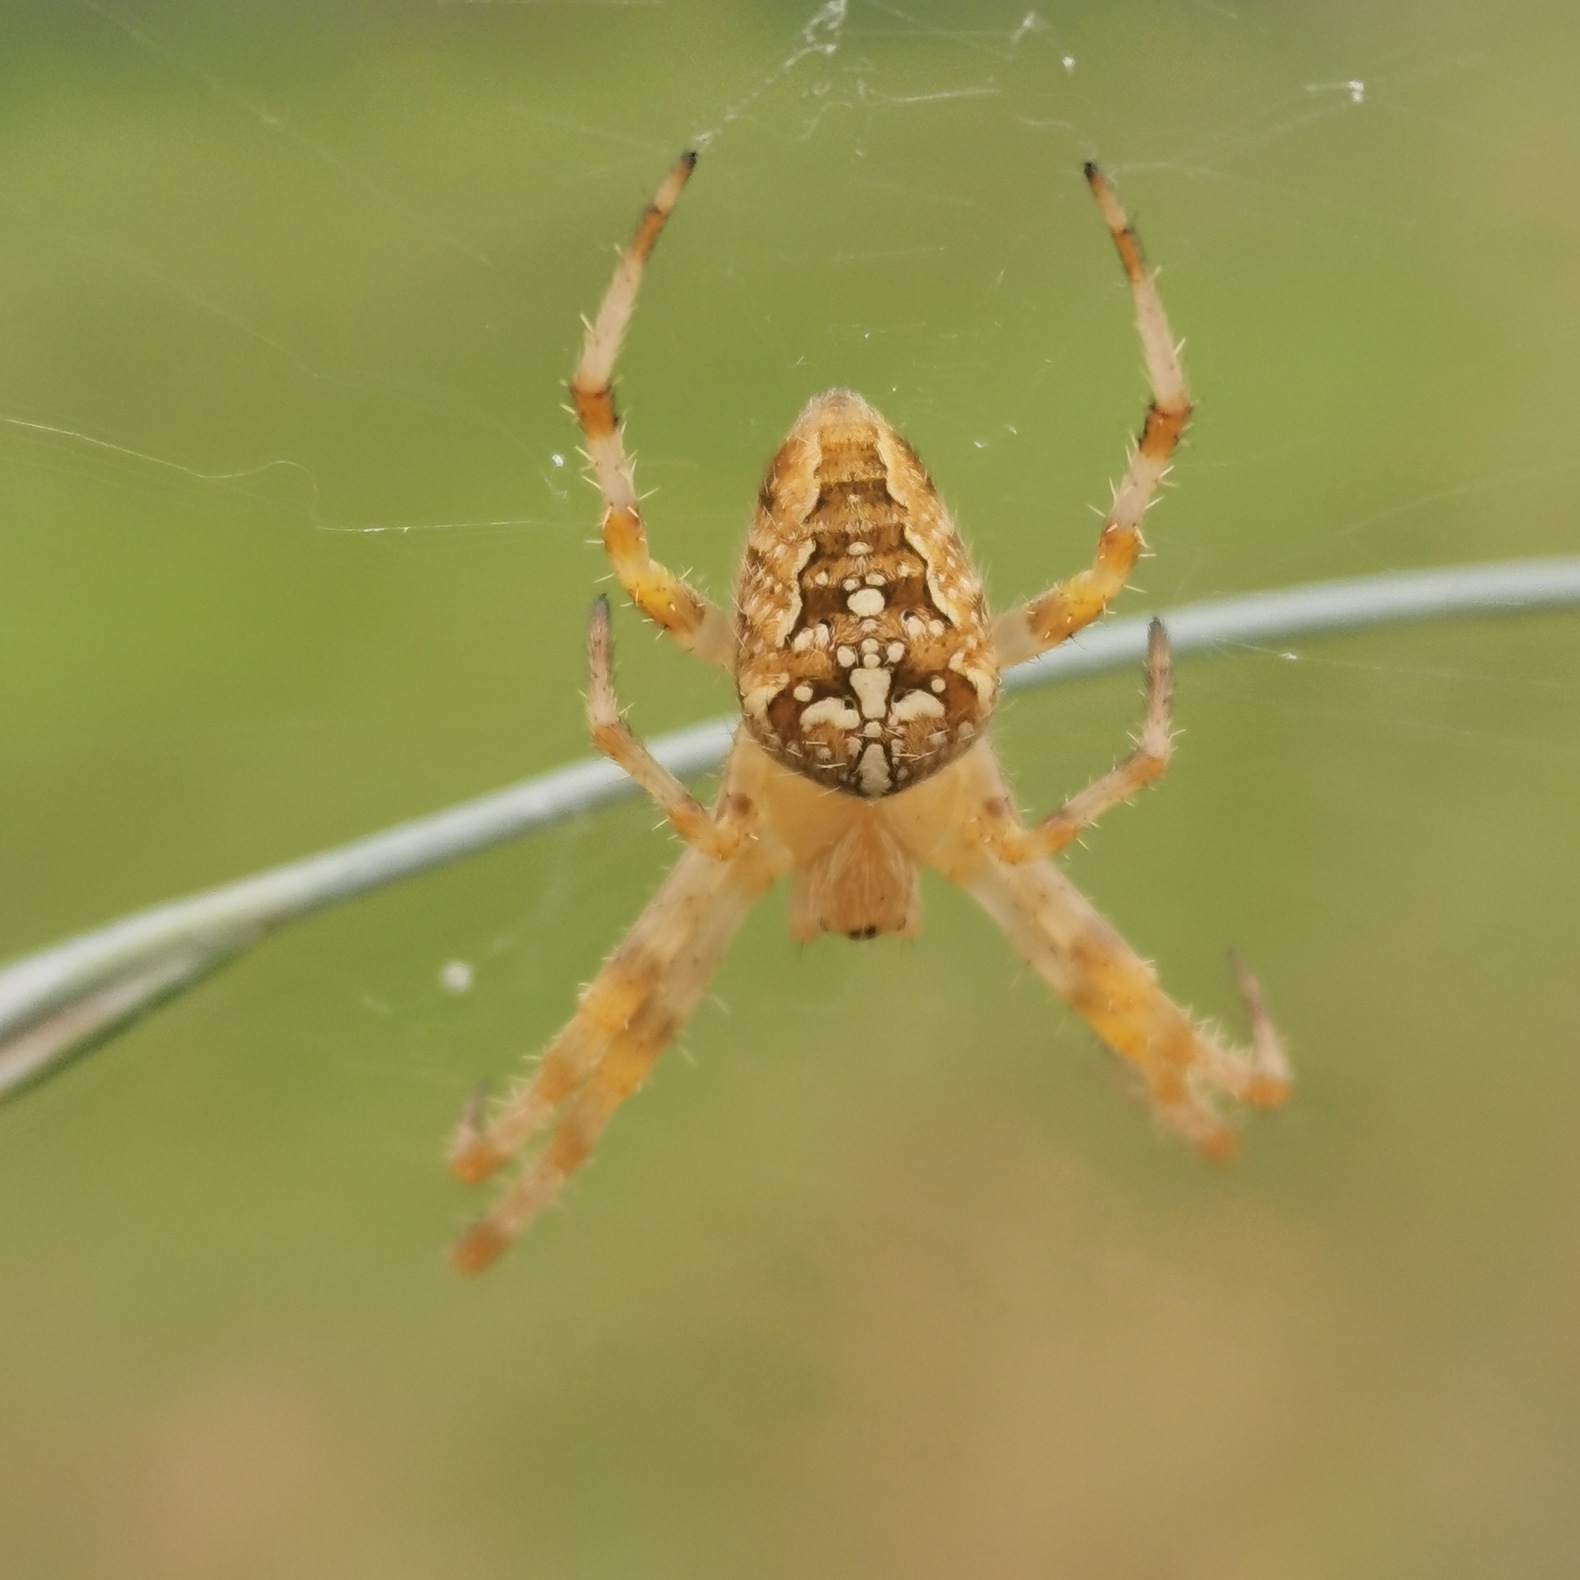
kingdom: Animalia
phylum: Arthropoda
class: Arachnida
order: Araneae
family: Araneidae
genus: Araneus
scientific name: Araneus diadematus
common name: Korsedderkop
